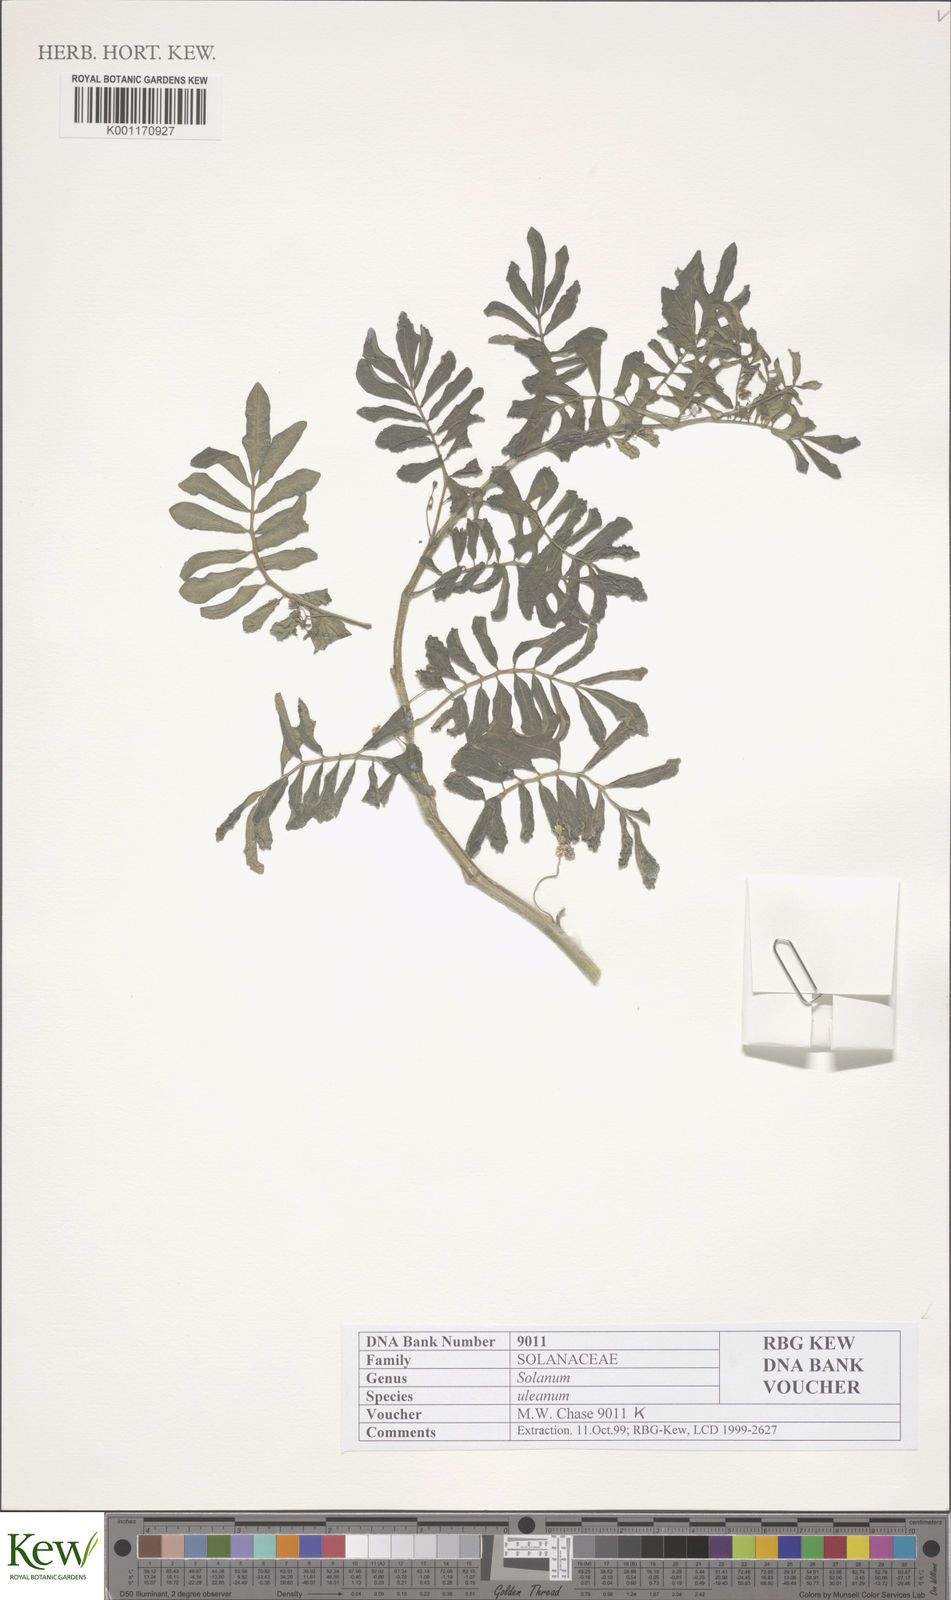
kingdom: Plantae
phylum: Tracheophyta
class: Magnoliopsida
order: Solanales
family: Solanaceae
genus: Solanum
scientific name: Solanum uleanum
